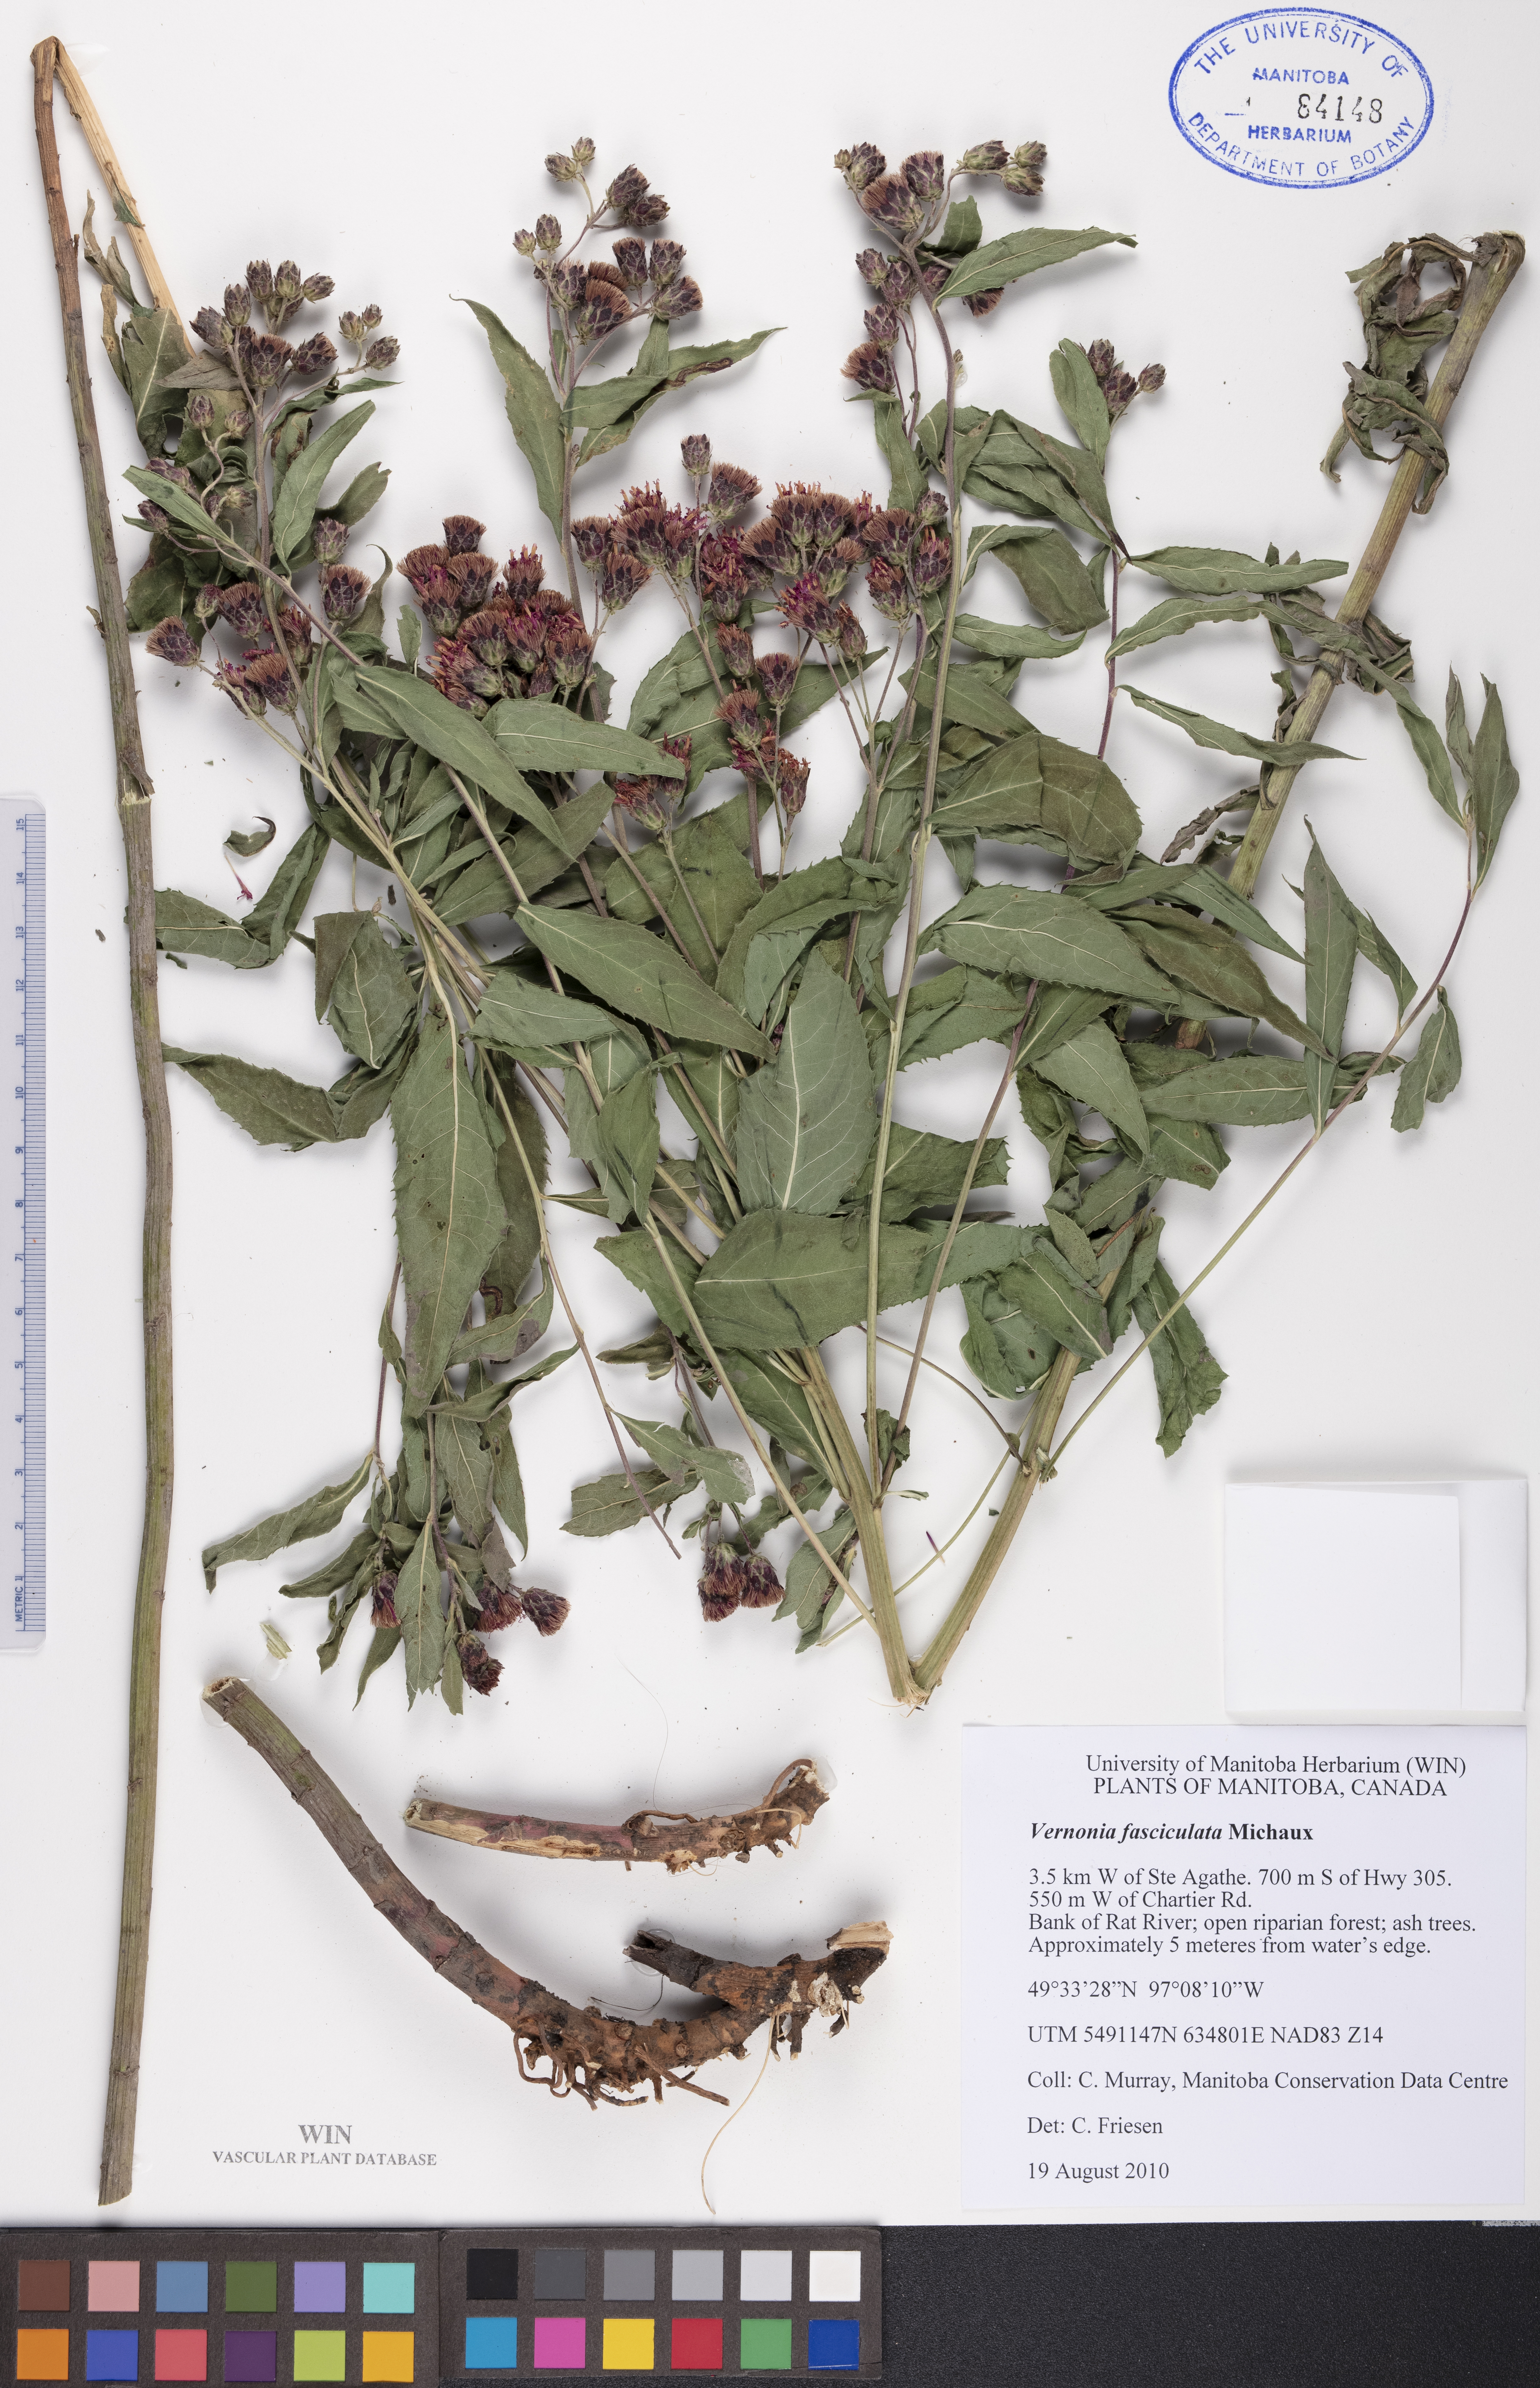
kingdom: Plantae
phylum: Tracheophyta
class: Magnoliopsida
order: Asterales
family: Asteraceae
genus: Vernonia
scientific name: Vernonia fasciculata
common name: Fascicled ironweed
